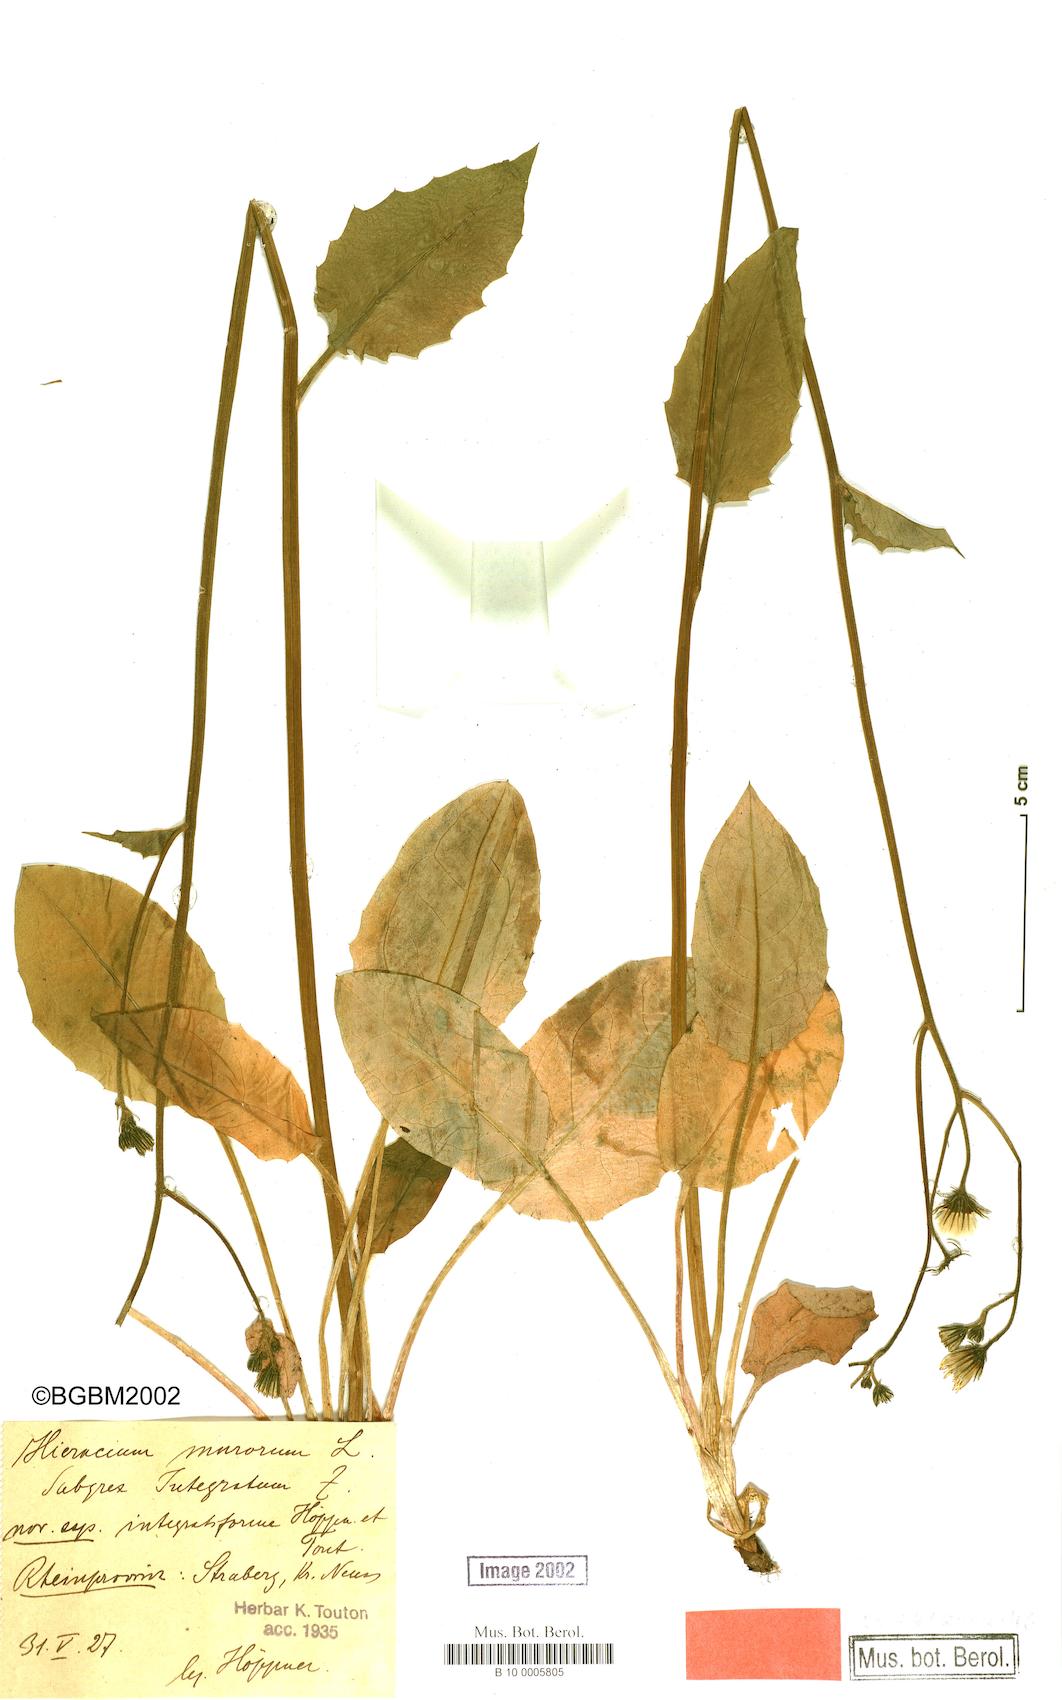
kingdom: Plantae
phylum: Tracheophyta
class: Magnoliopsida
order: Asterales
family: Asteraceae
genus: Hieracium
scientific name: Hieracium murorum
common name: Wall hawkweed
